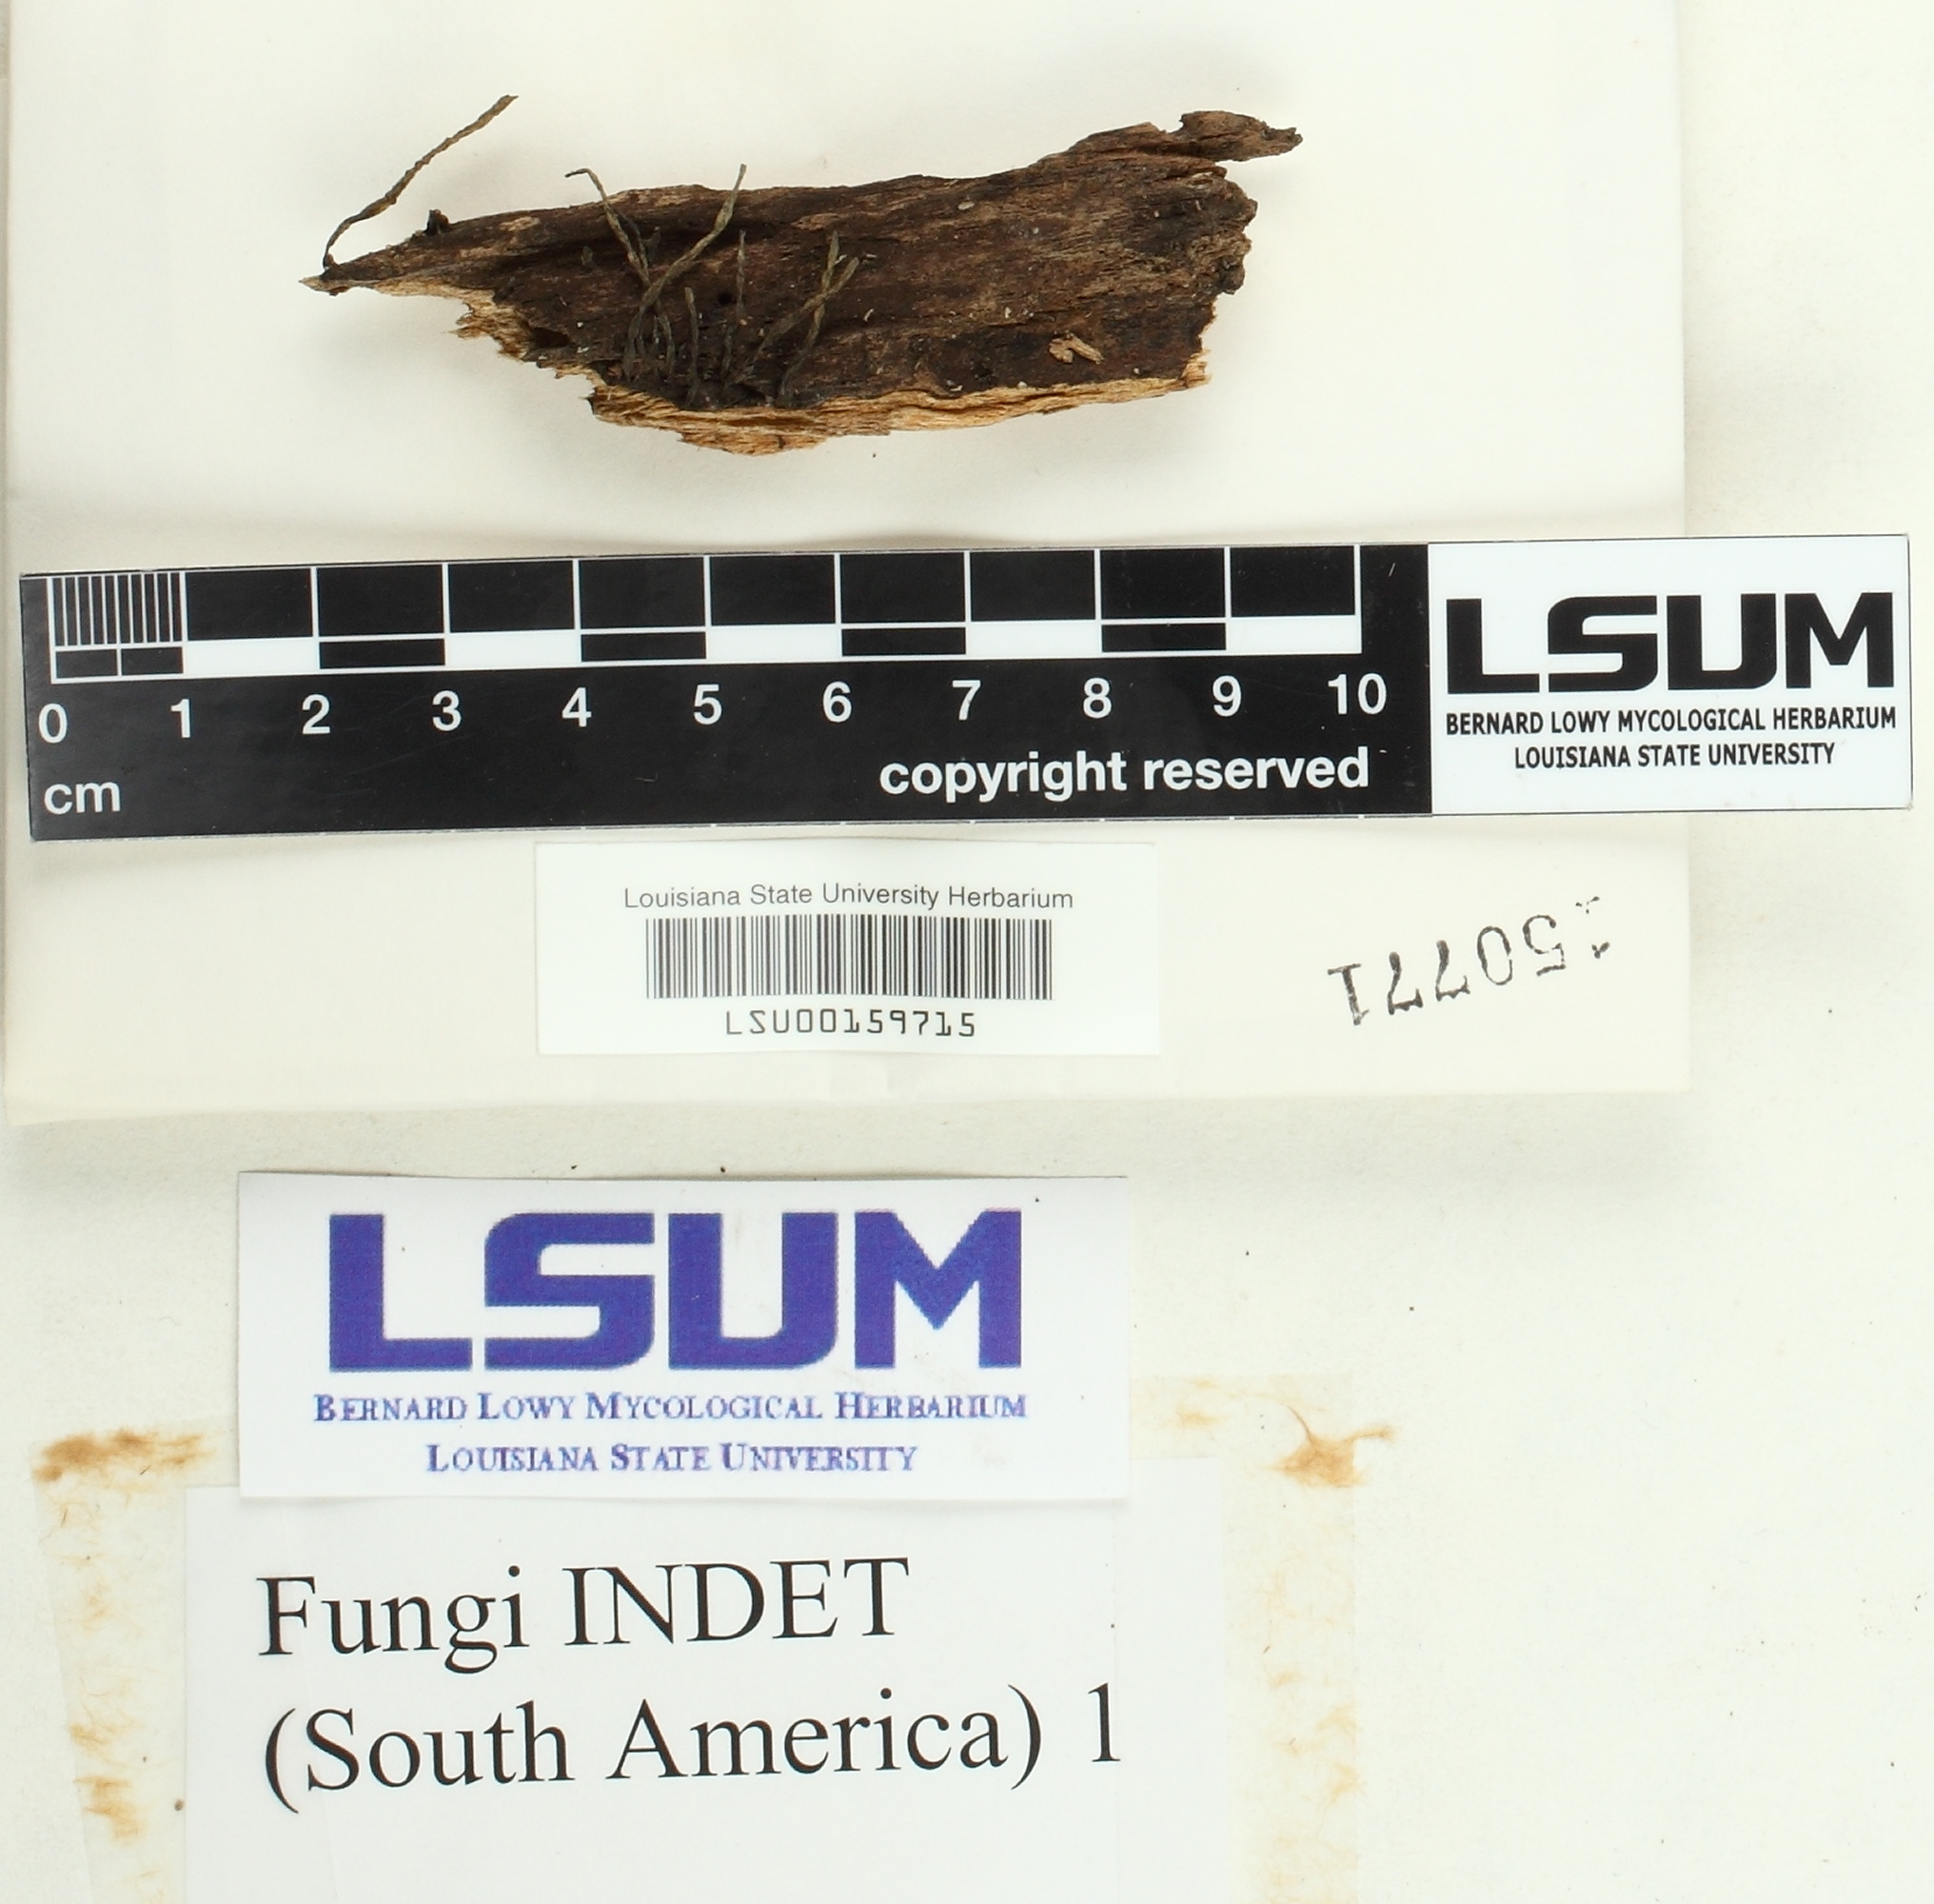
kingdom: Fungi
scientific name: Fungi
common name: Fungi
